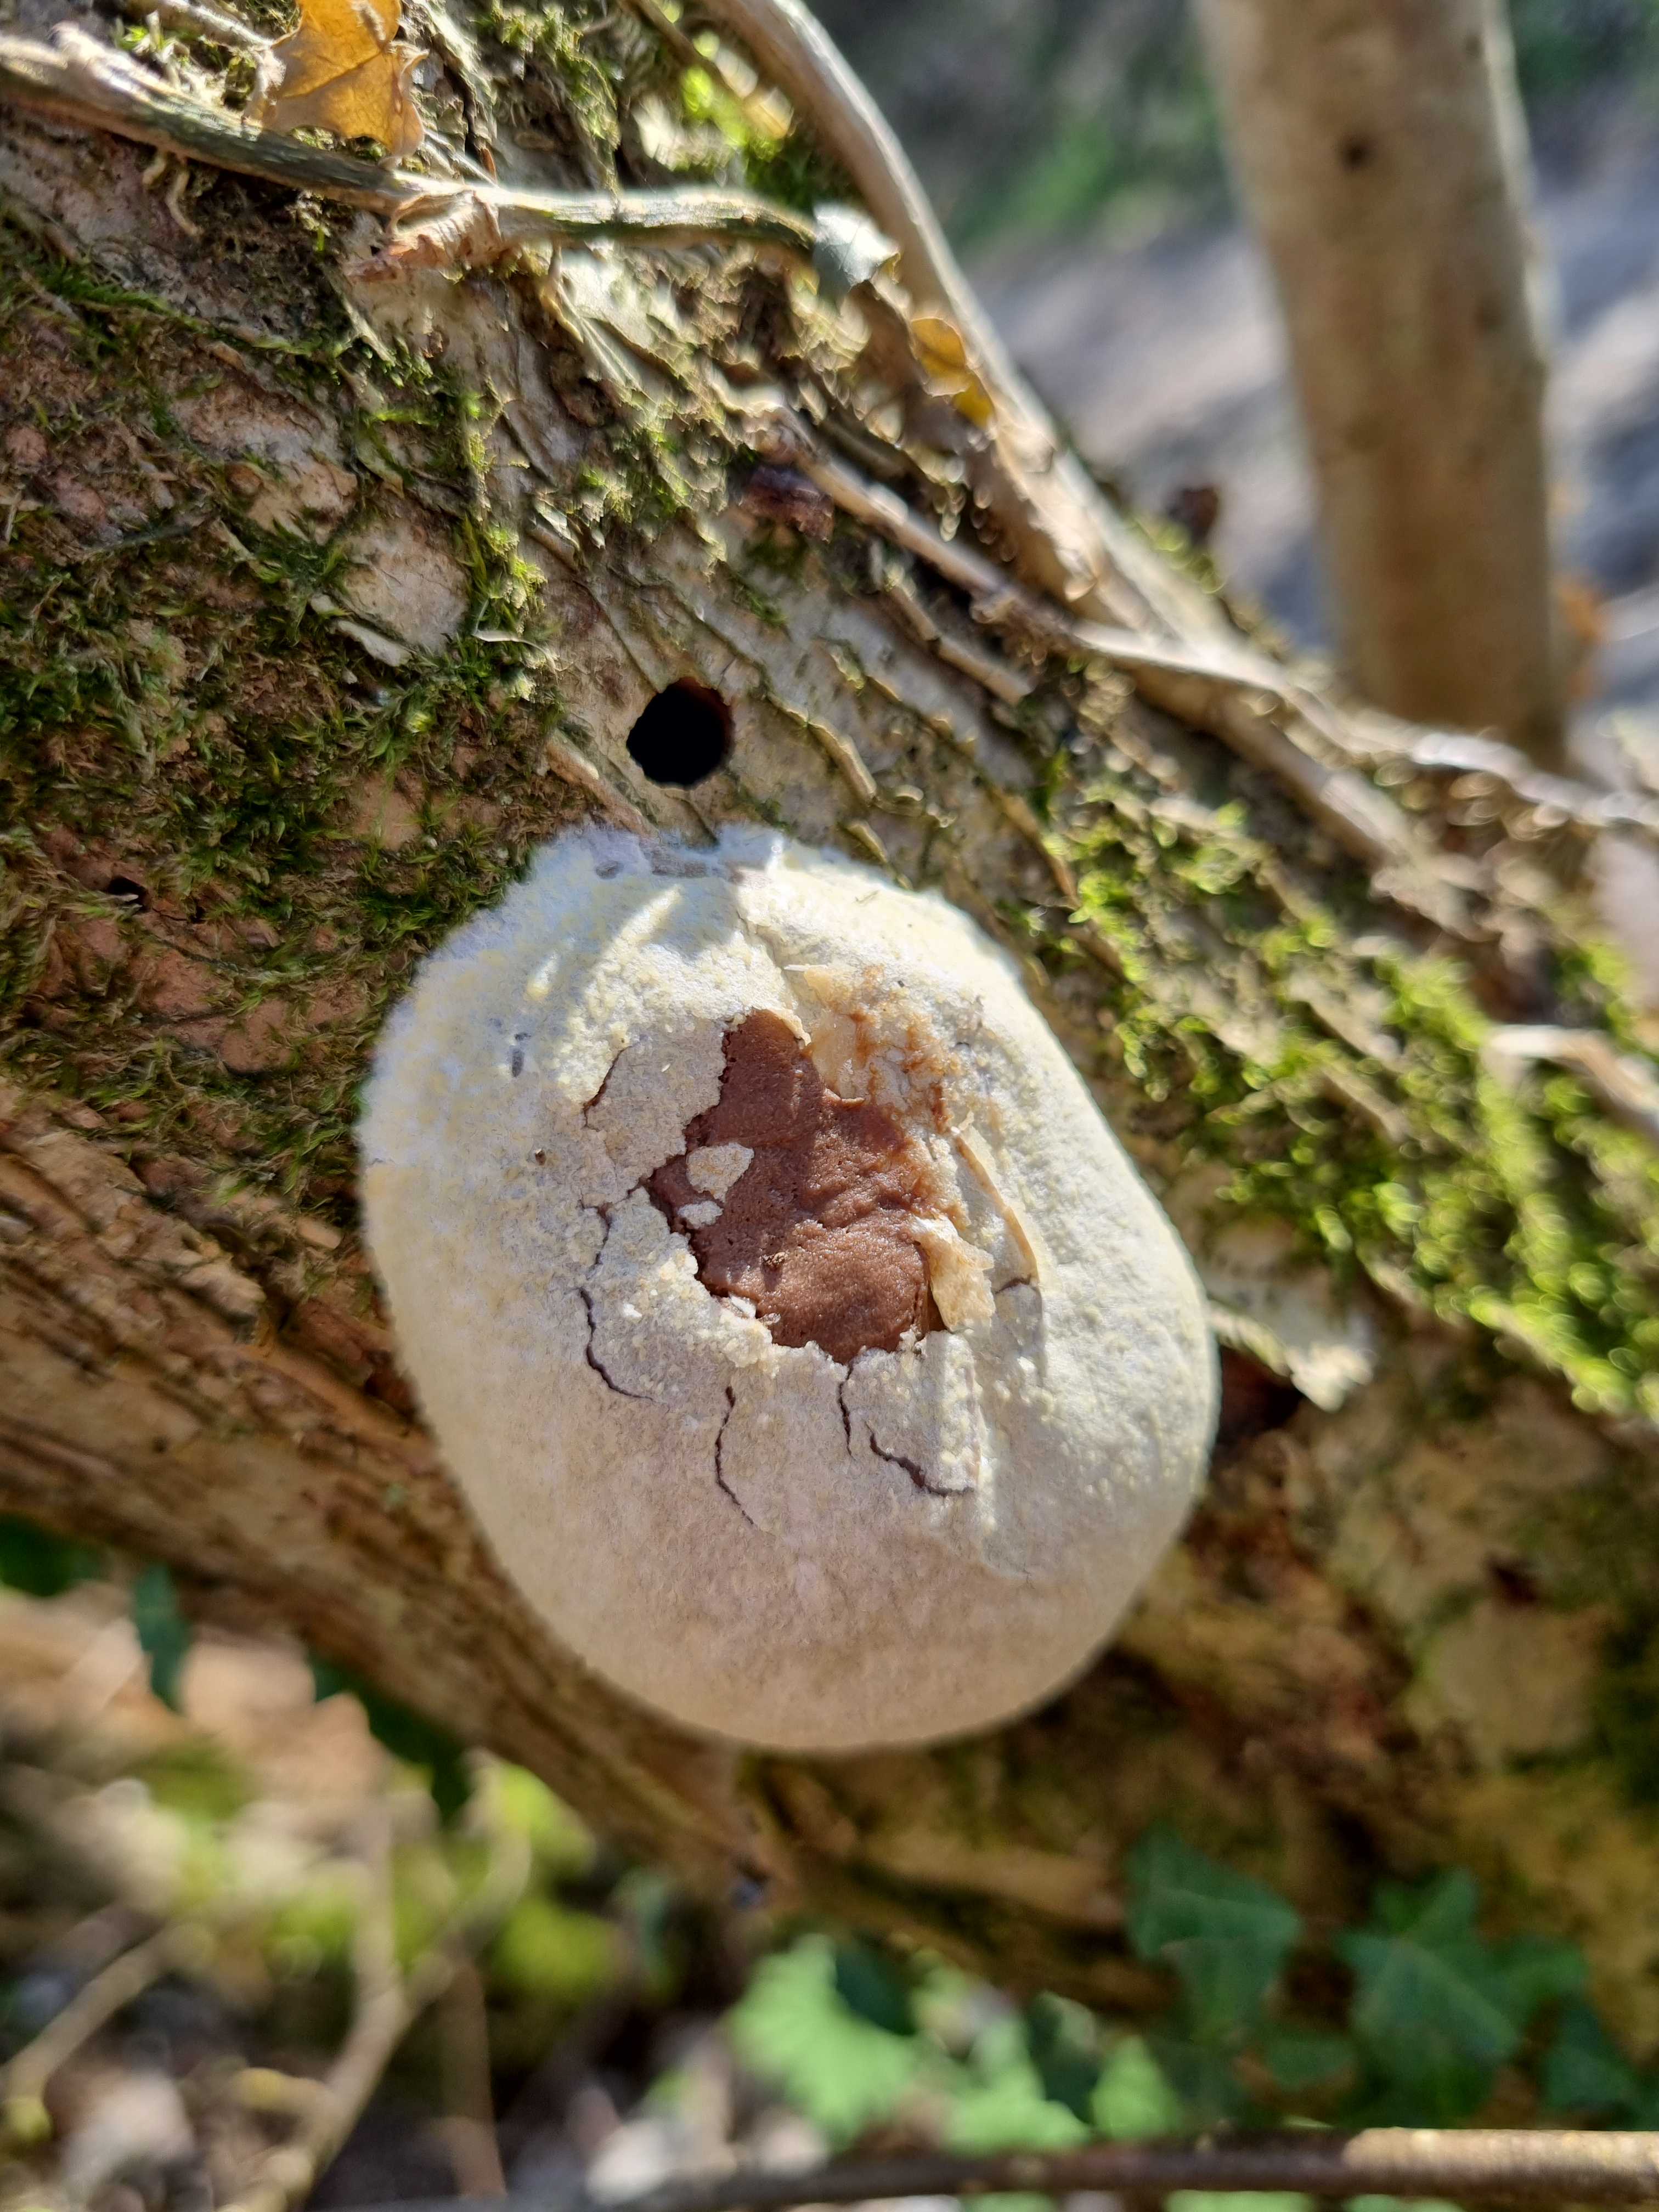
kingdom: Protozoa
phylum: Mycetozoa
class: Myxomycetes
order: Cribrariales
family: Tubiferaceae
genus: Reticularia
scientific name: Reticularia lycoperdon
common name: skinnende støvpude
